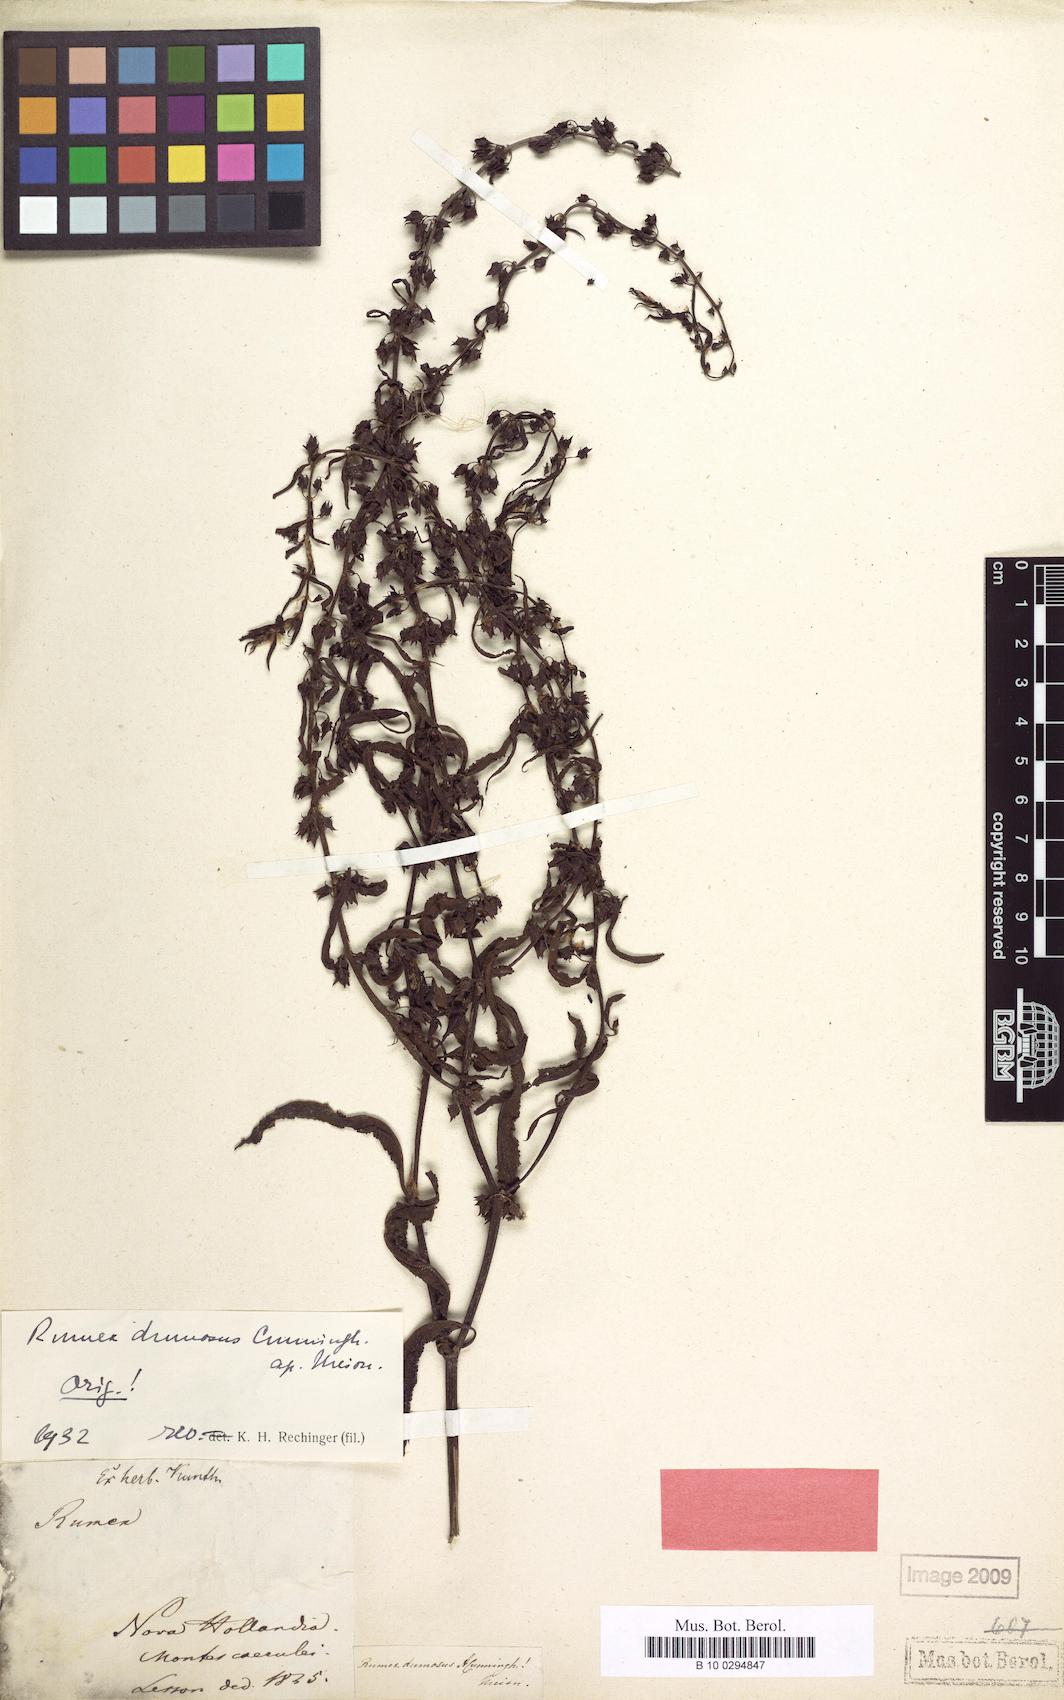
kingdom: Plantae
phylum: Tracheophyta
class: Magnoliopsida
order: Caryophyllales
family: Polygonaceae
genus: Rumex
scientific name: Rumex dumosus
